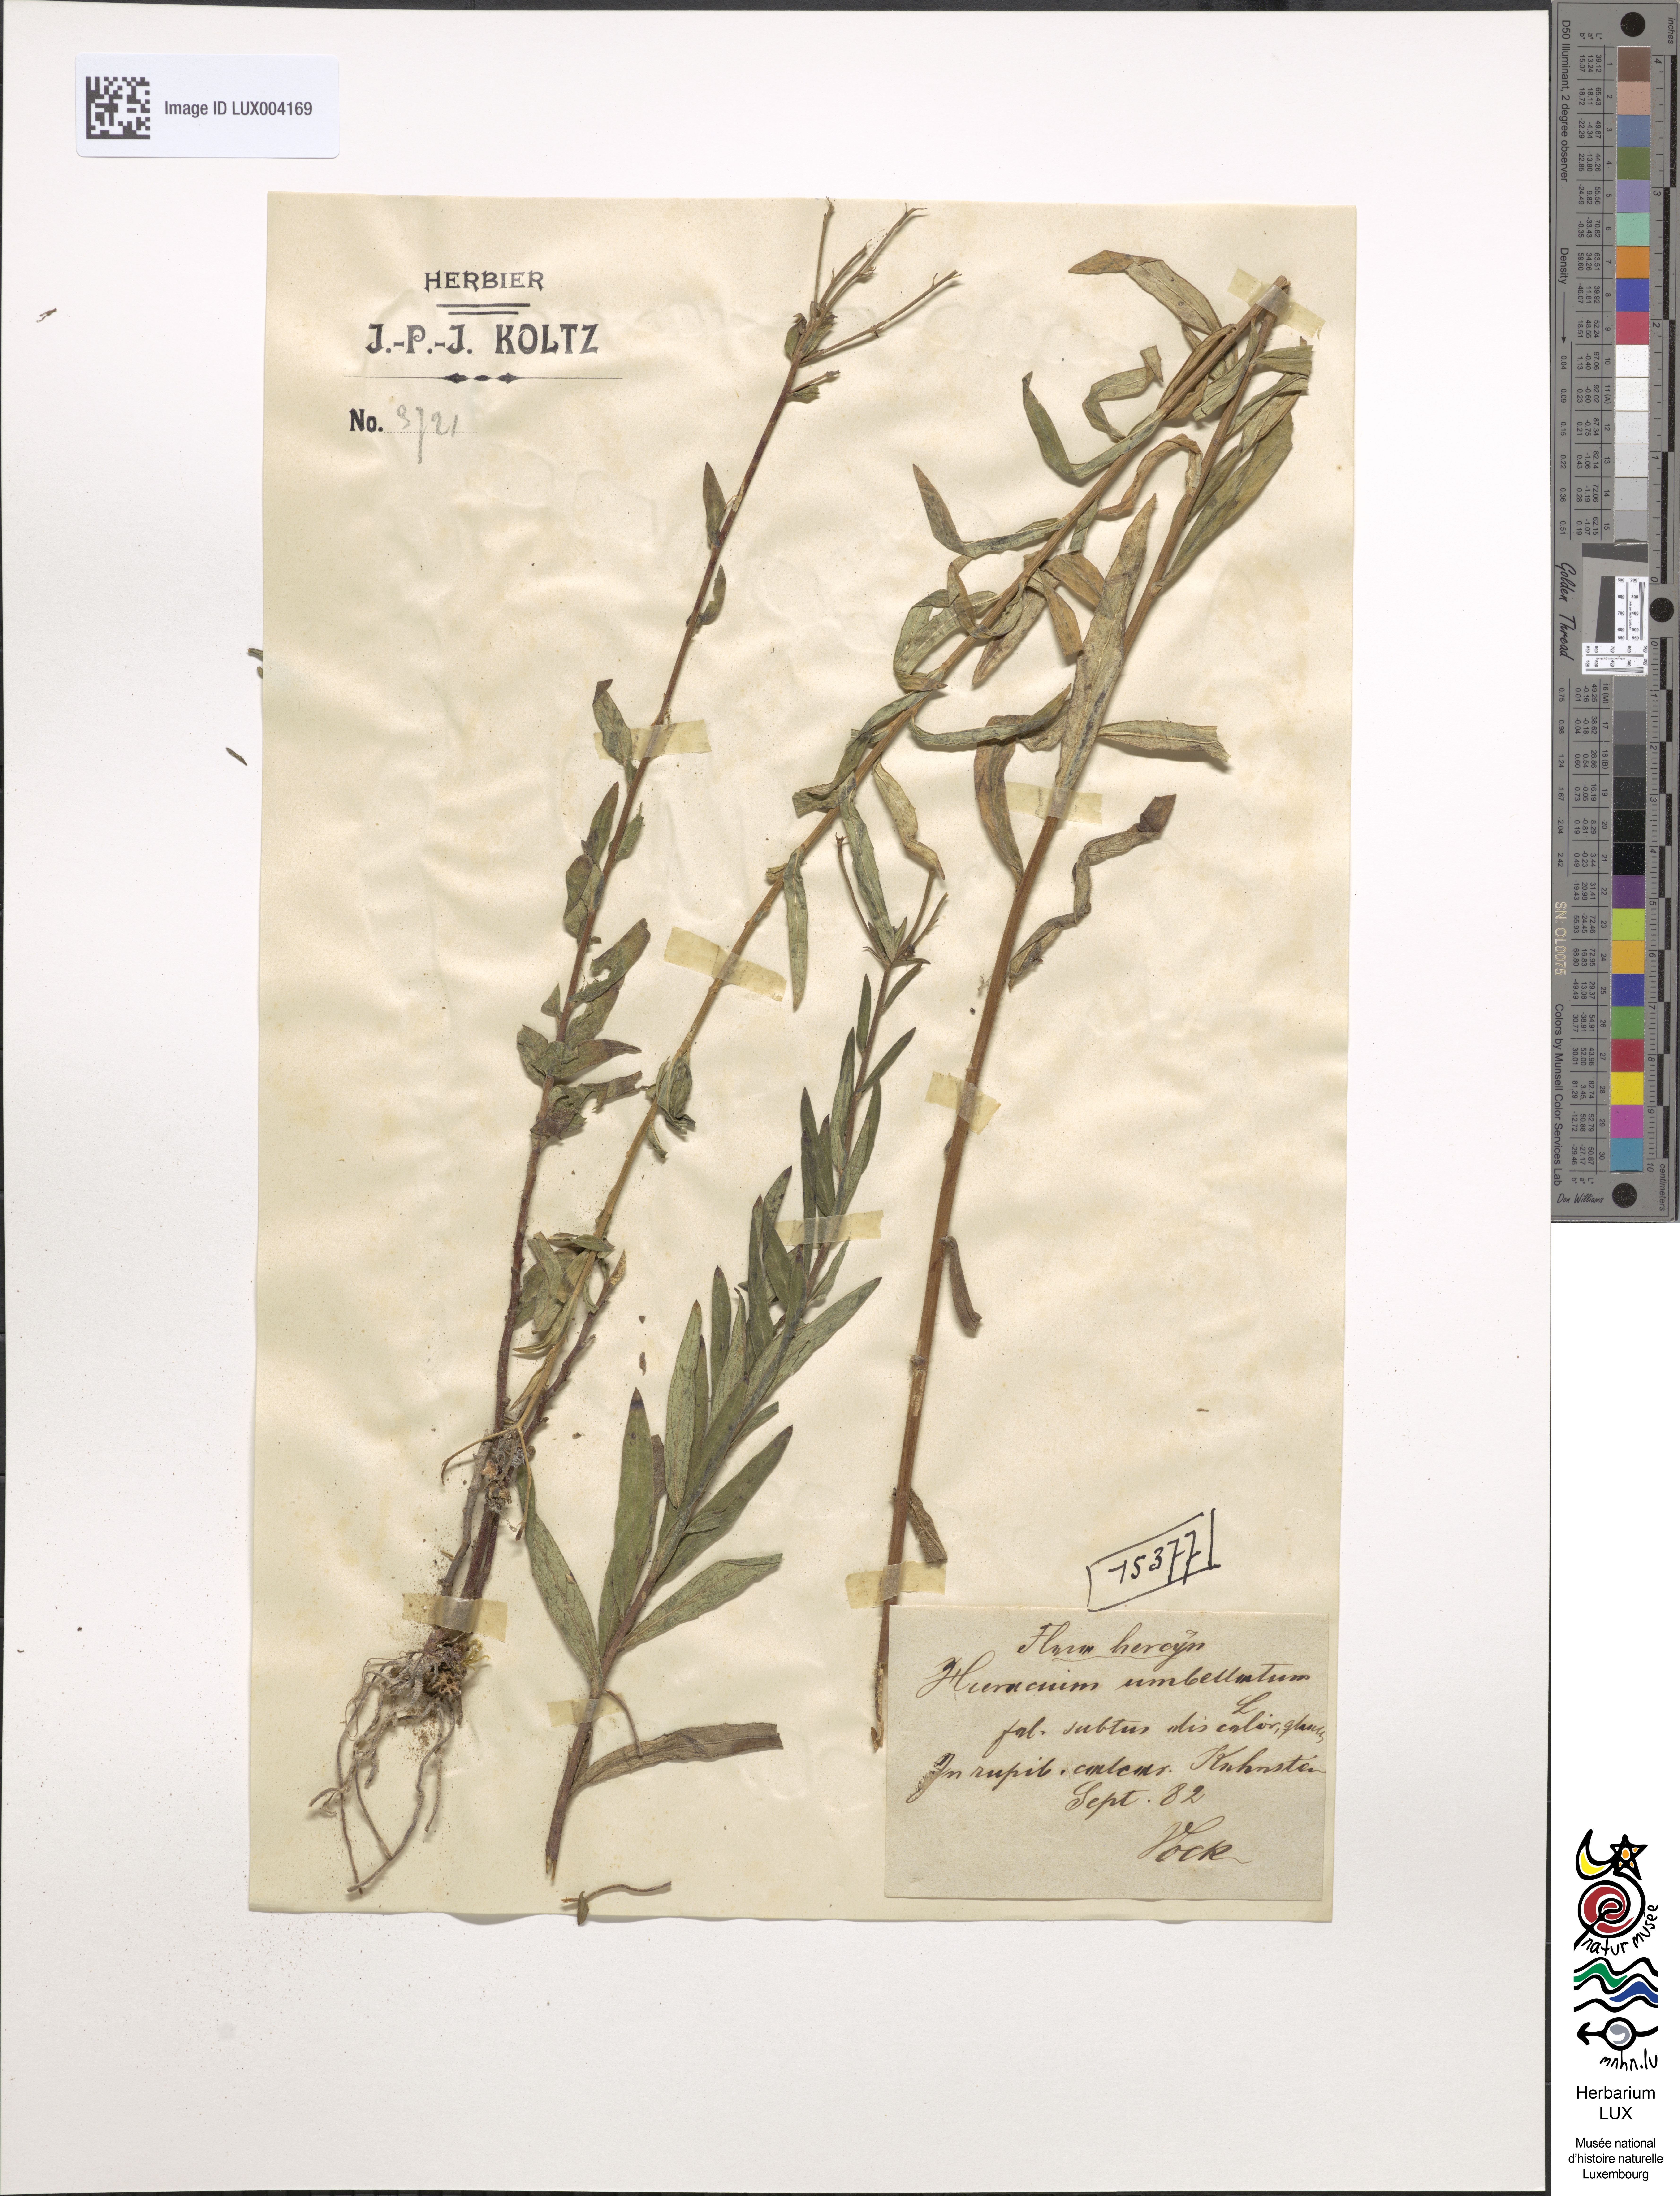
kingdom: Plantae
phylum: Tracheophyta
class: Magnoliopsida
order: Asterales
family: Asteraceae
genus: Hieracium
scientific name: Hieracium umbellatum
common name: Northern hawkweed
